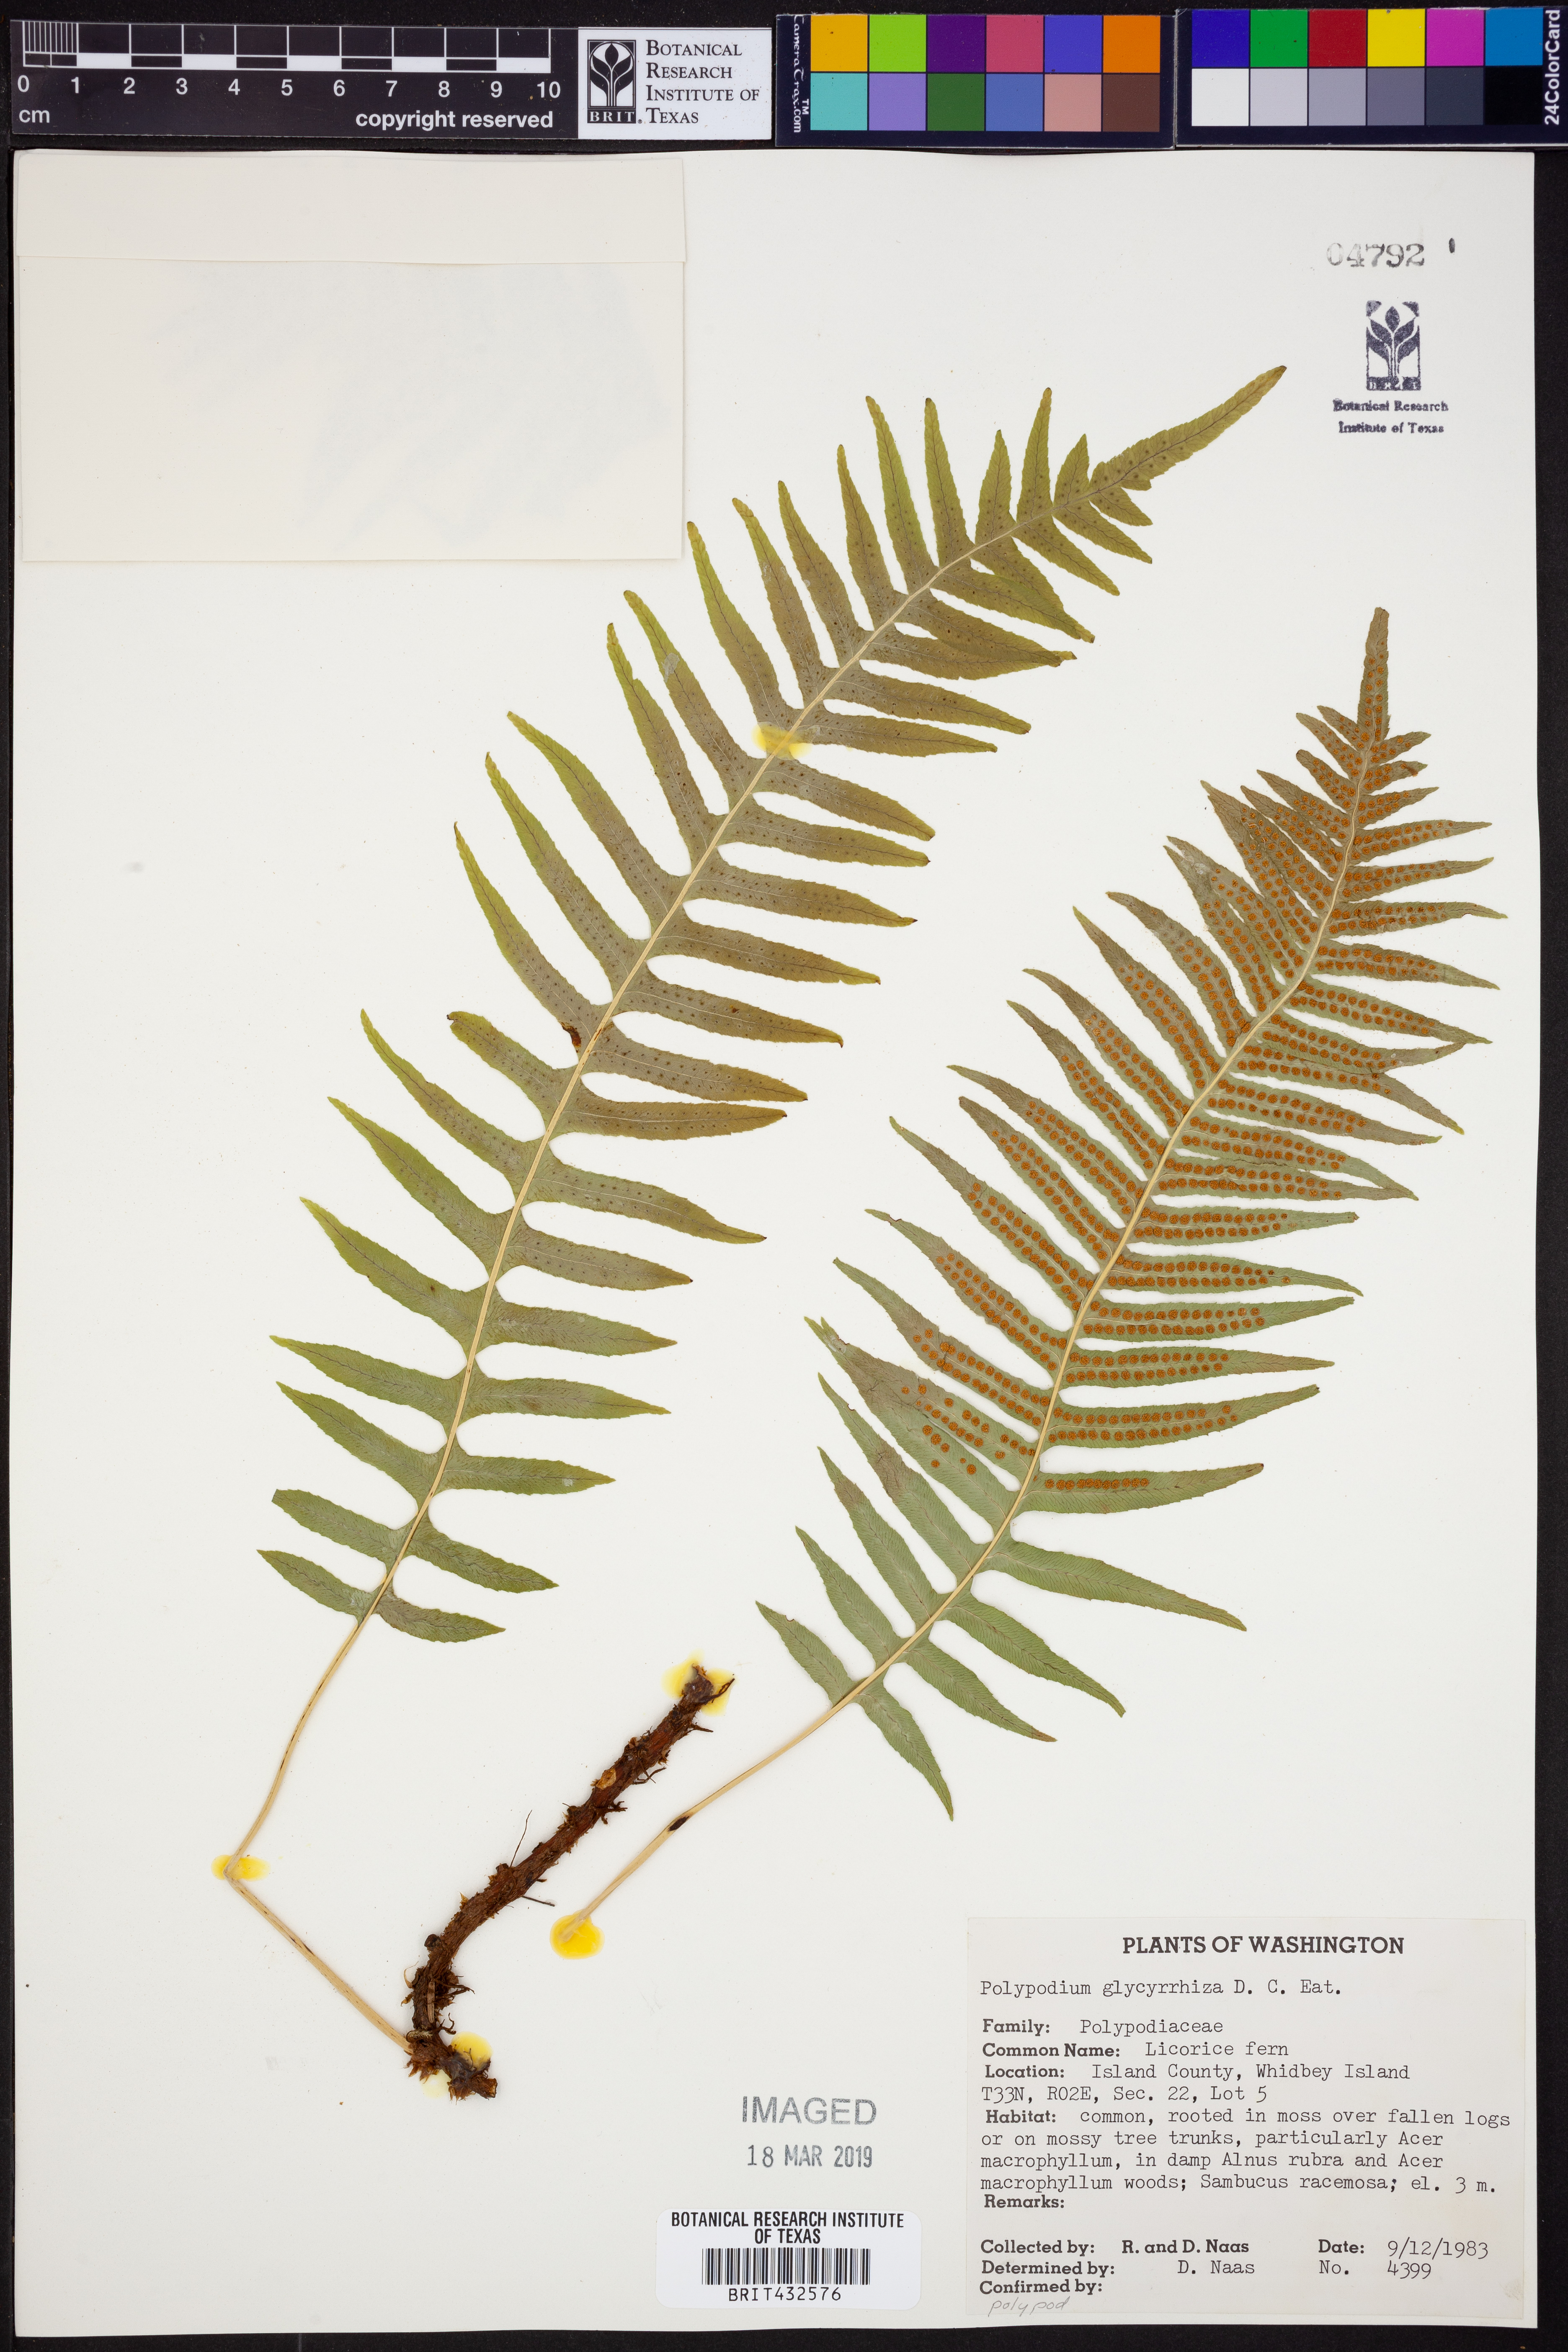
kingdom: Plantae
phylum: Tracheophyta
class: Polypodiopsida
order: Polypodiales
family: Polypodiaceae
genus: Polypodium
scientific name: Polypodium glycyrrhiza
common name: Licorice fern
